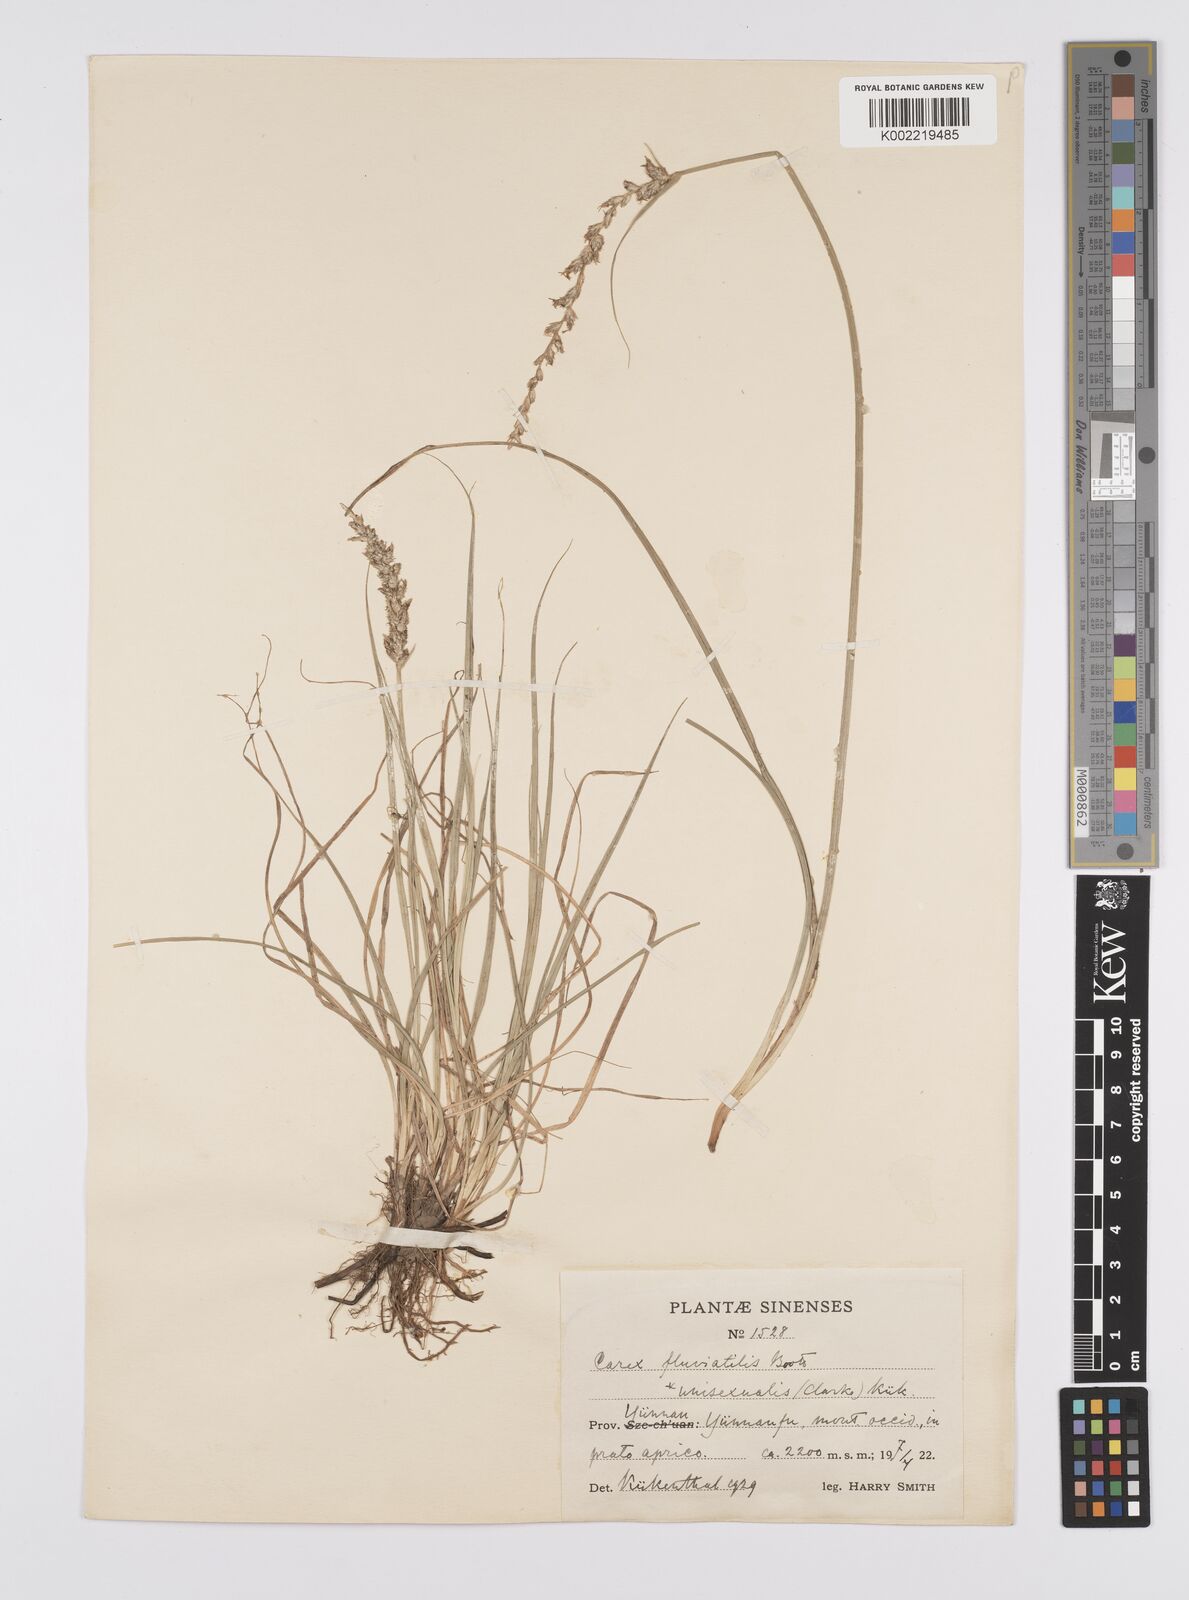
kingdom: Plantae
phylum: Tracheophyta
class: Liliopsida
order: Poales
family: Cyperaceae
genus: Carex
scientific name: Carex unisexualis
